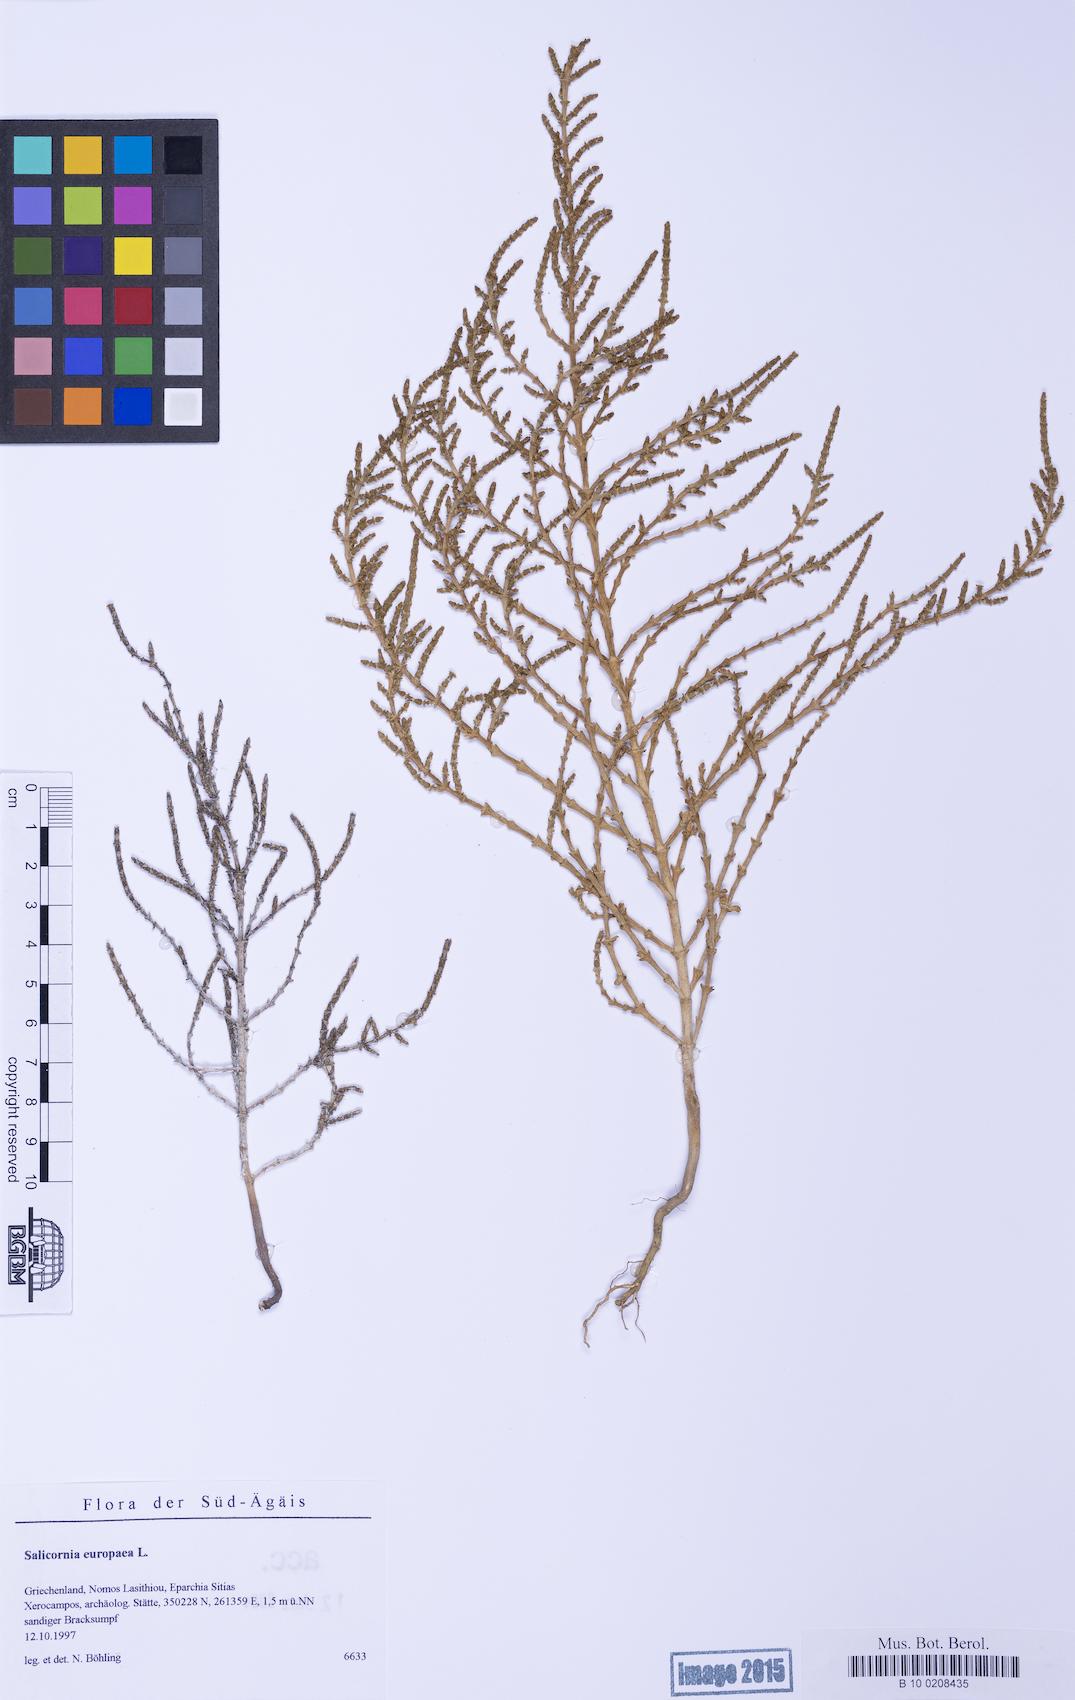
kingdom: Plantae
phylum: Tracheophyta
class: Magnoliopsida
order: Caryophyllales
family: Amaranthaceae
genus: Salicornia
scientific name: Salicornia perennans
